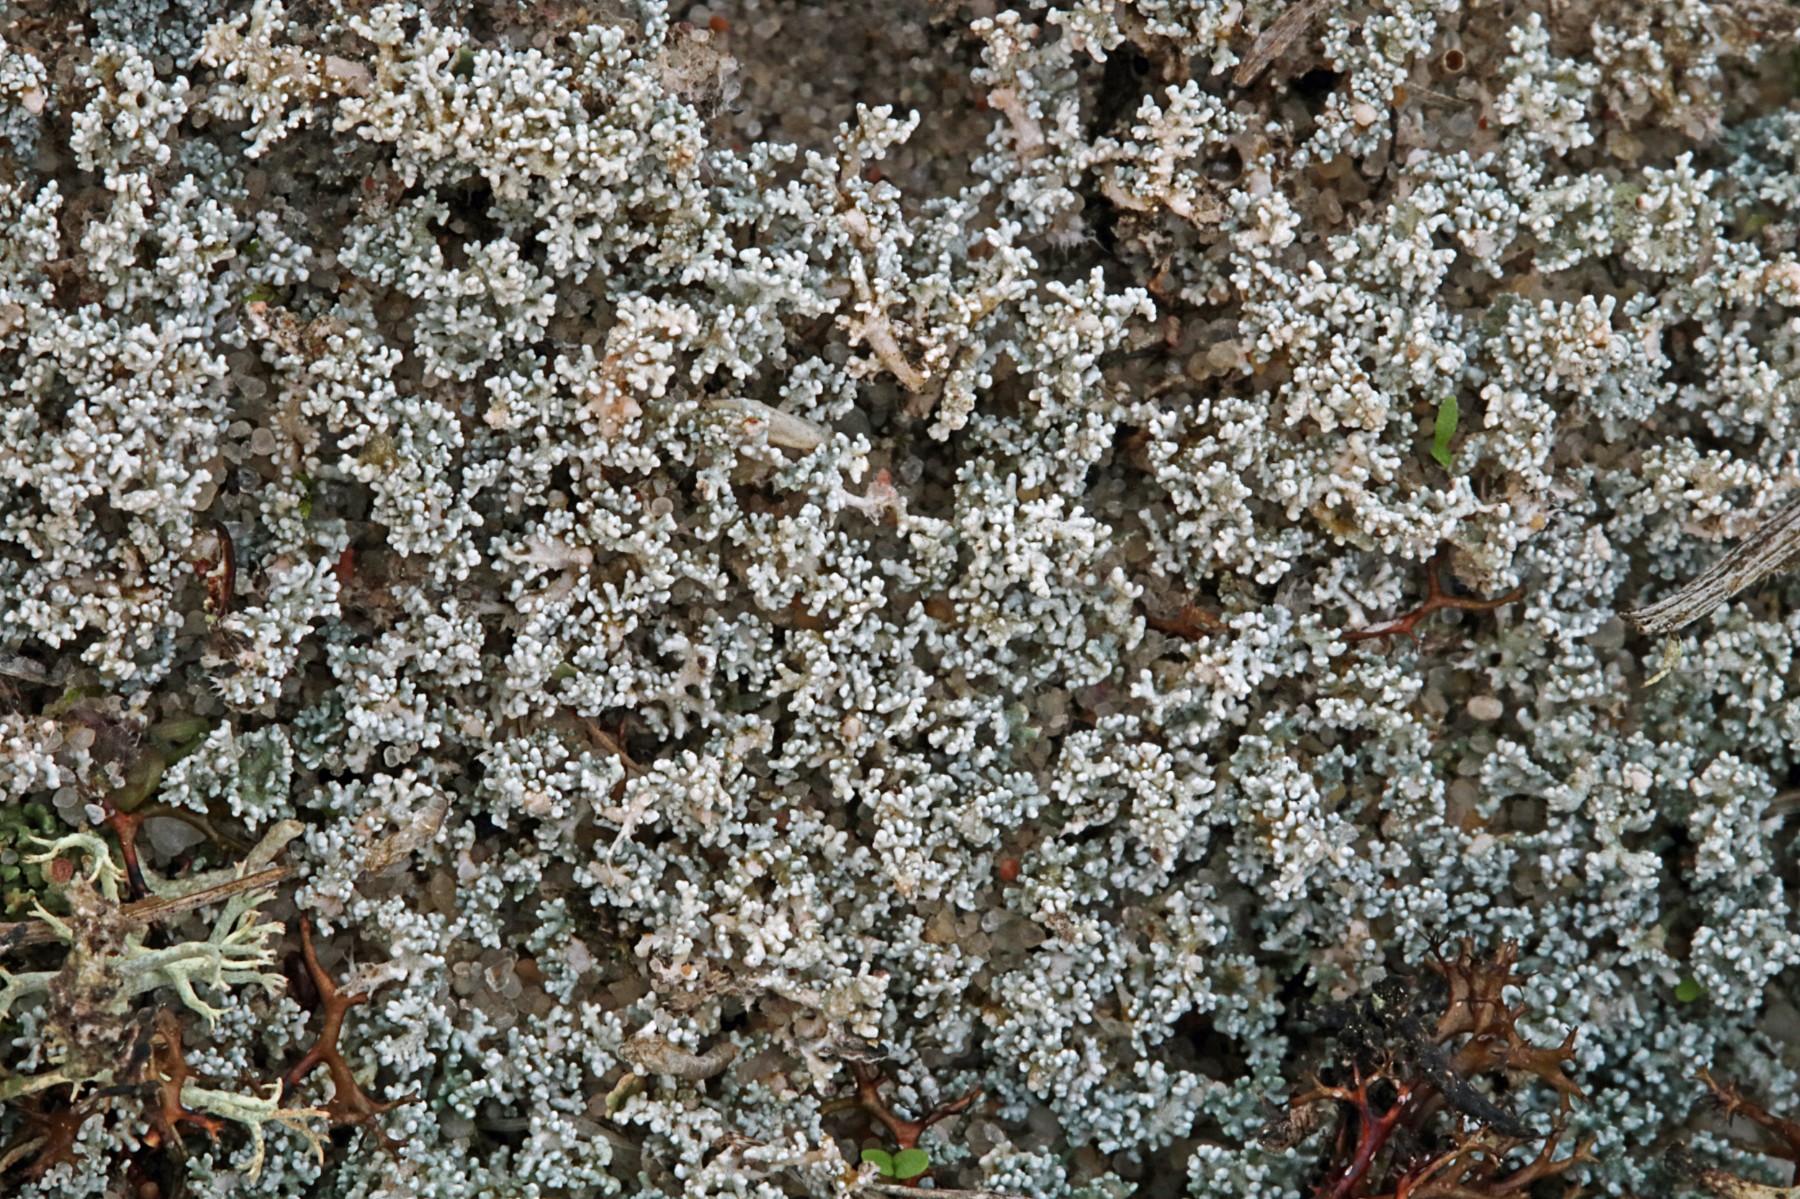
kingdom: Fungi
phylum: Ascomycota
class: Lecanoromycetes
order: Lecanorales
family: Stereocaulaceae
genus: Stereocaulon
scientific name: Stereocaulon condensatum
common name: lav korallav
